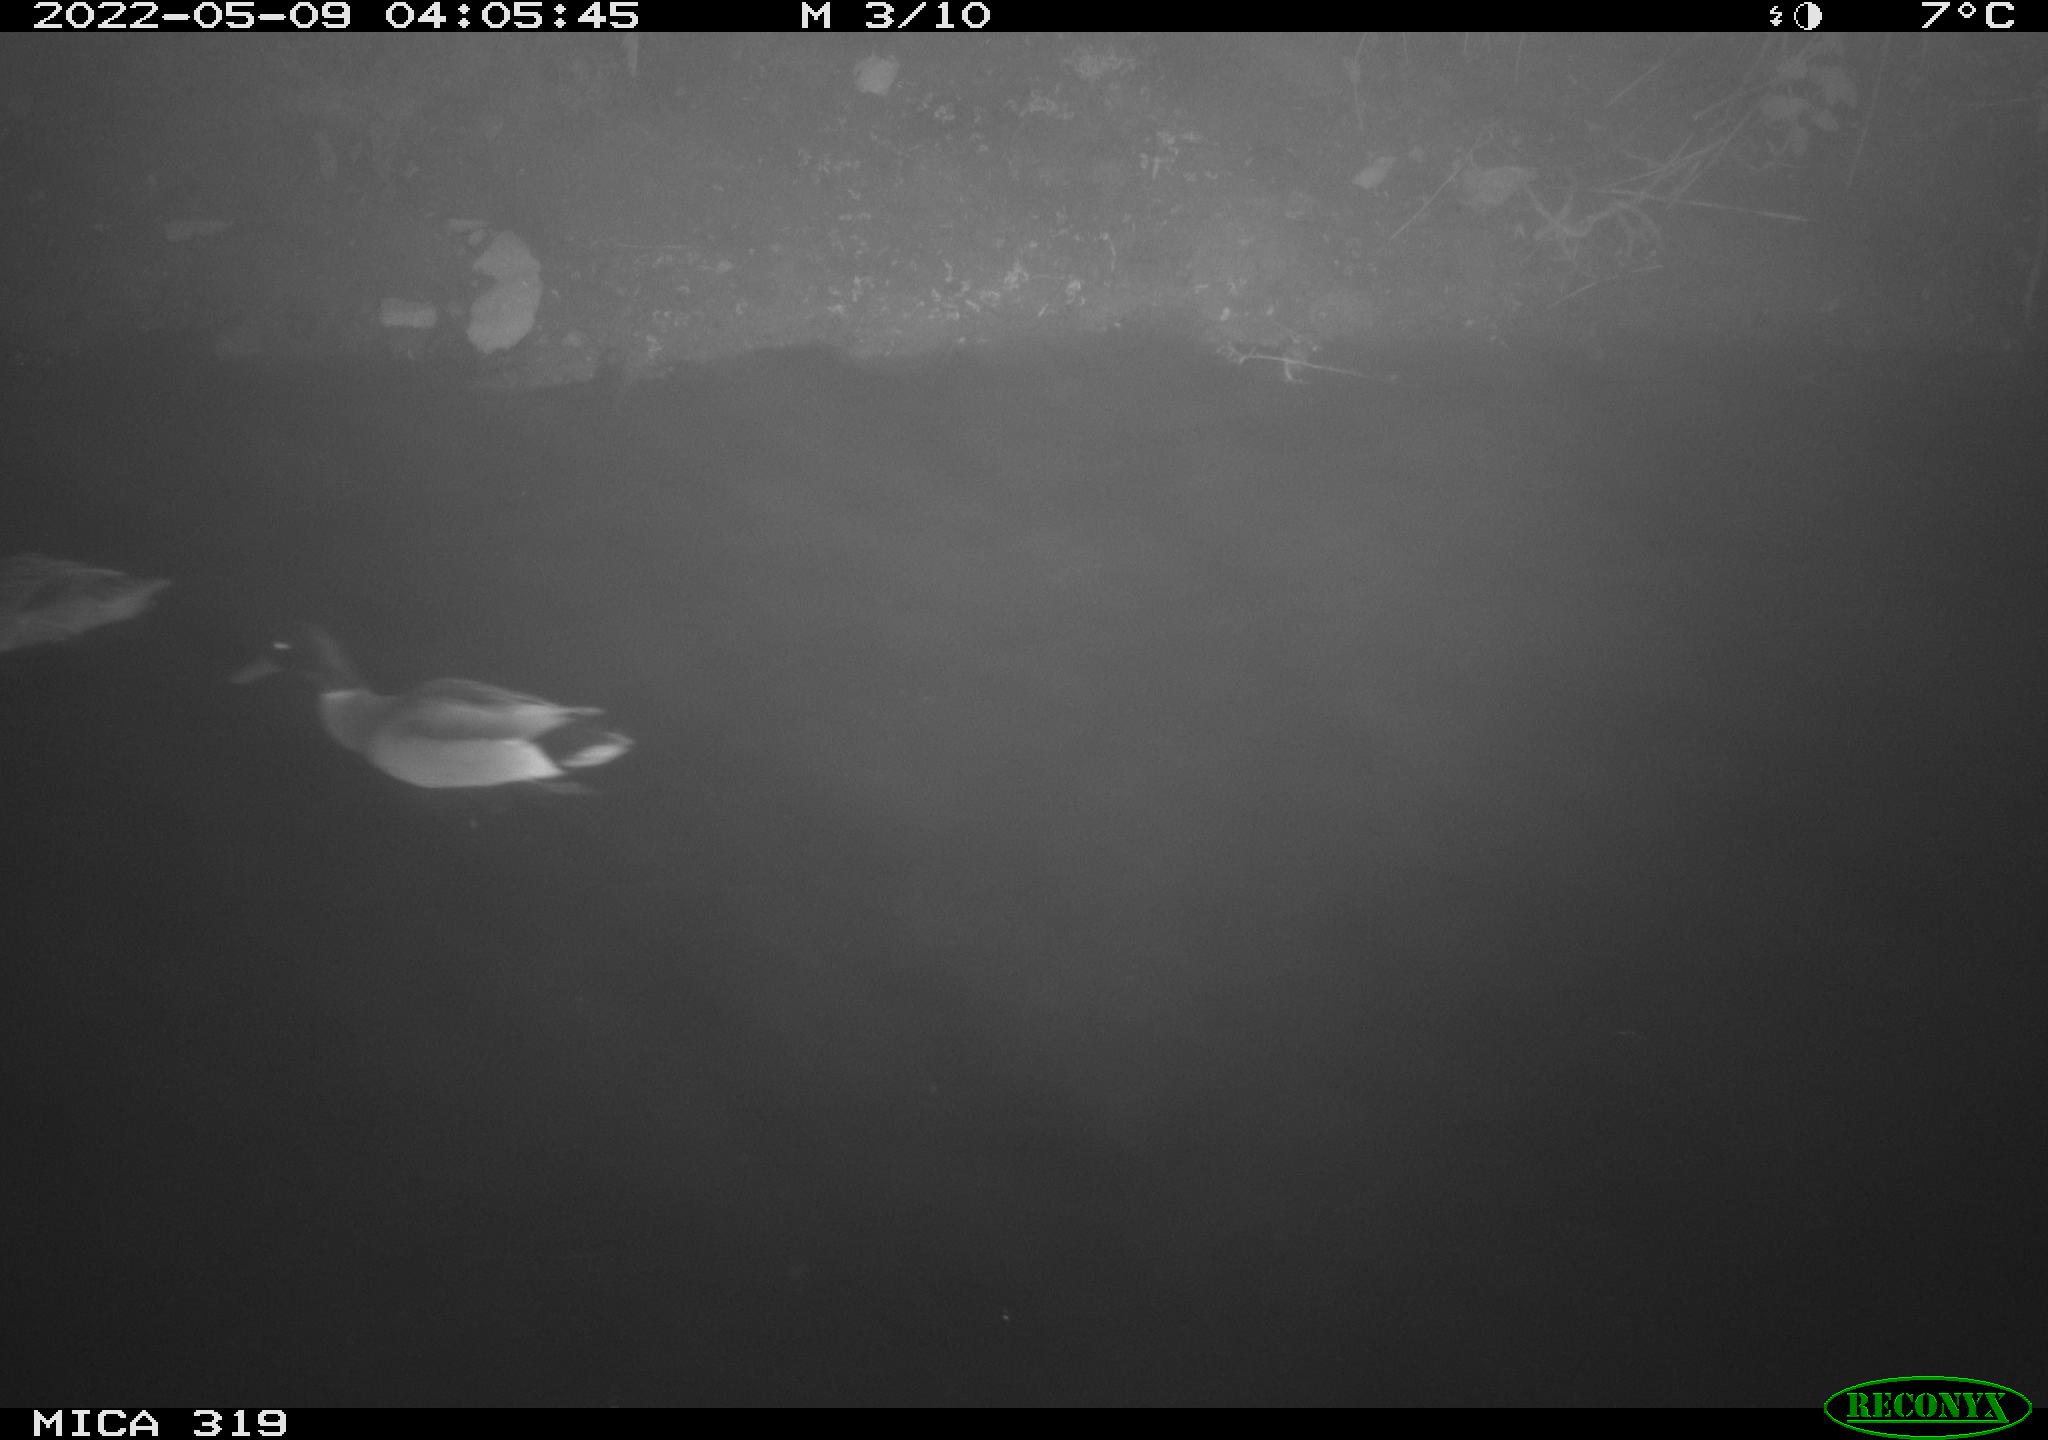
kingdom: Animalia
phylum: Chordata
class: Aves
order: Anseriformes
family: Anatidae
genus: Anas
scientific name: Anas platyrhynchos
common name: Mallard
